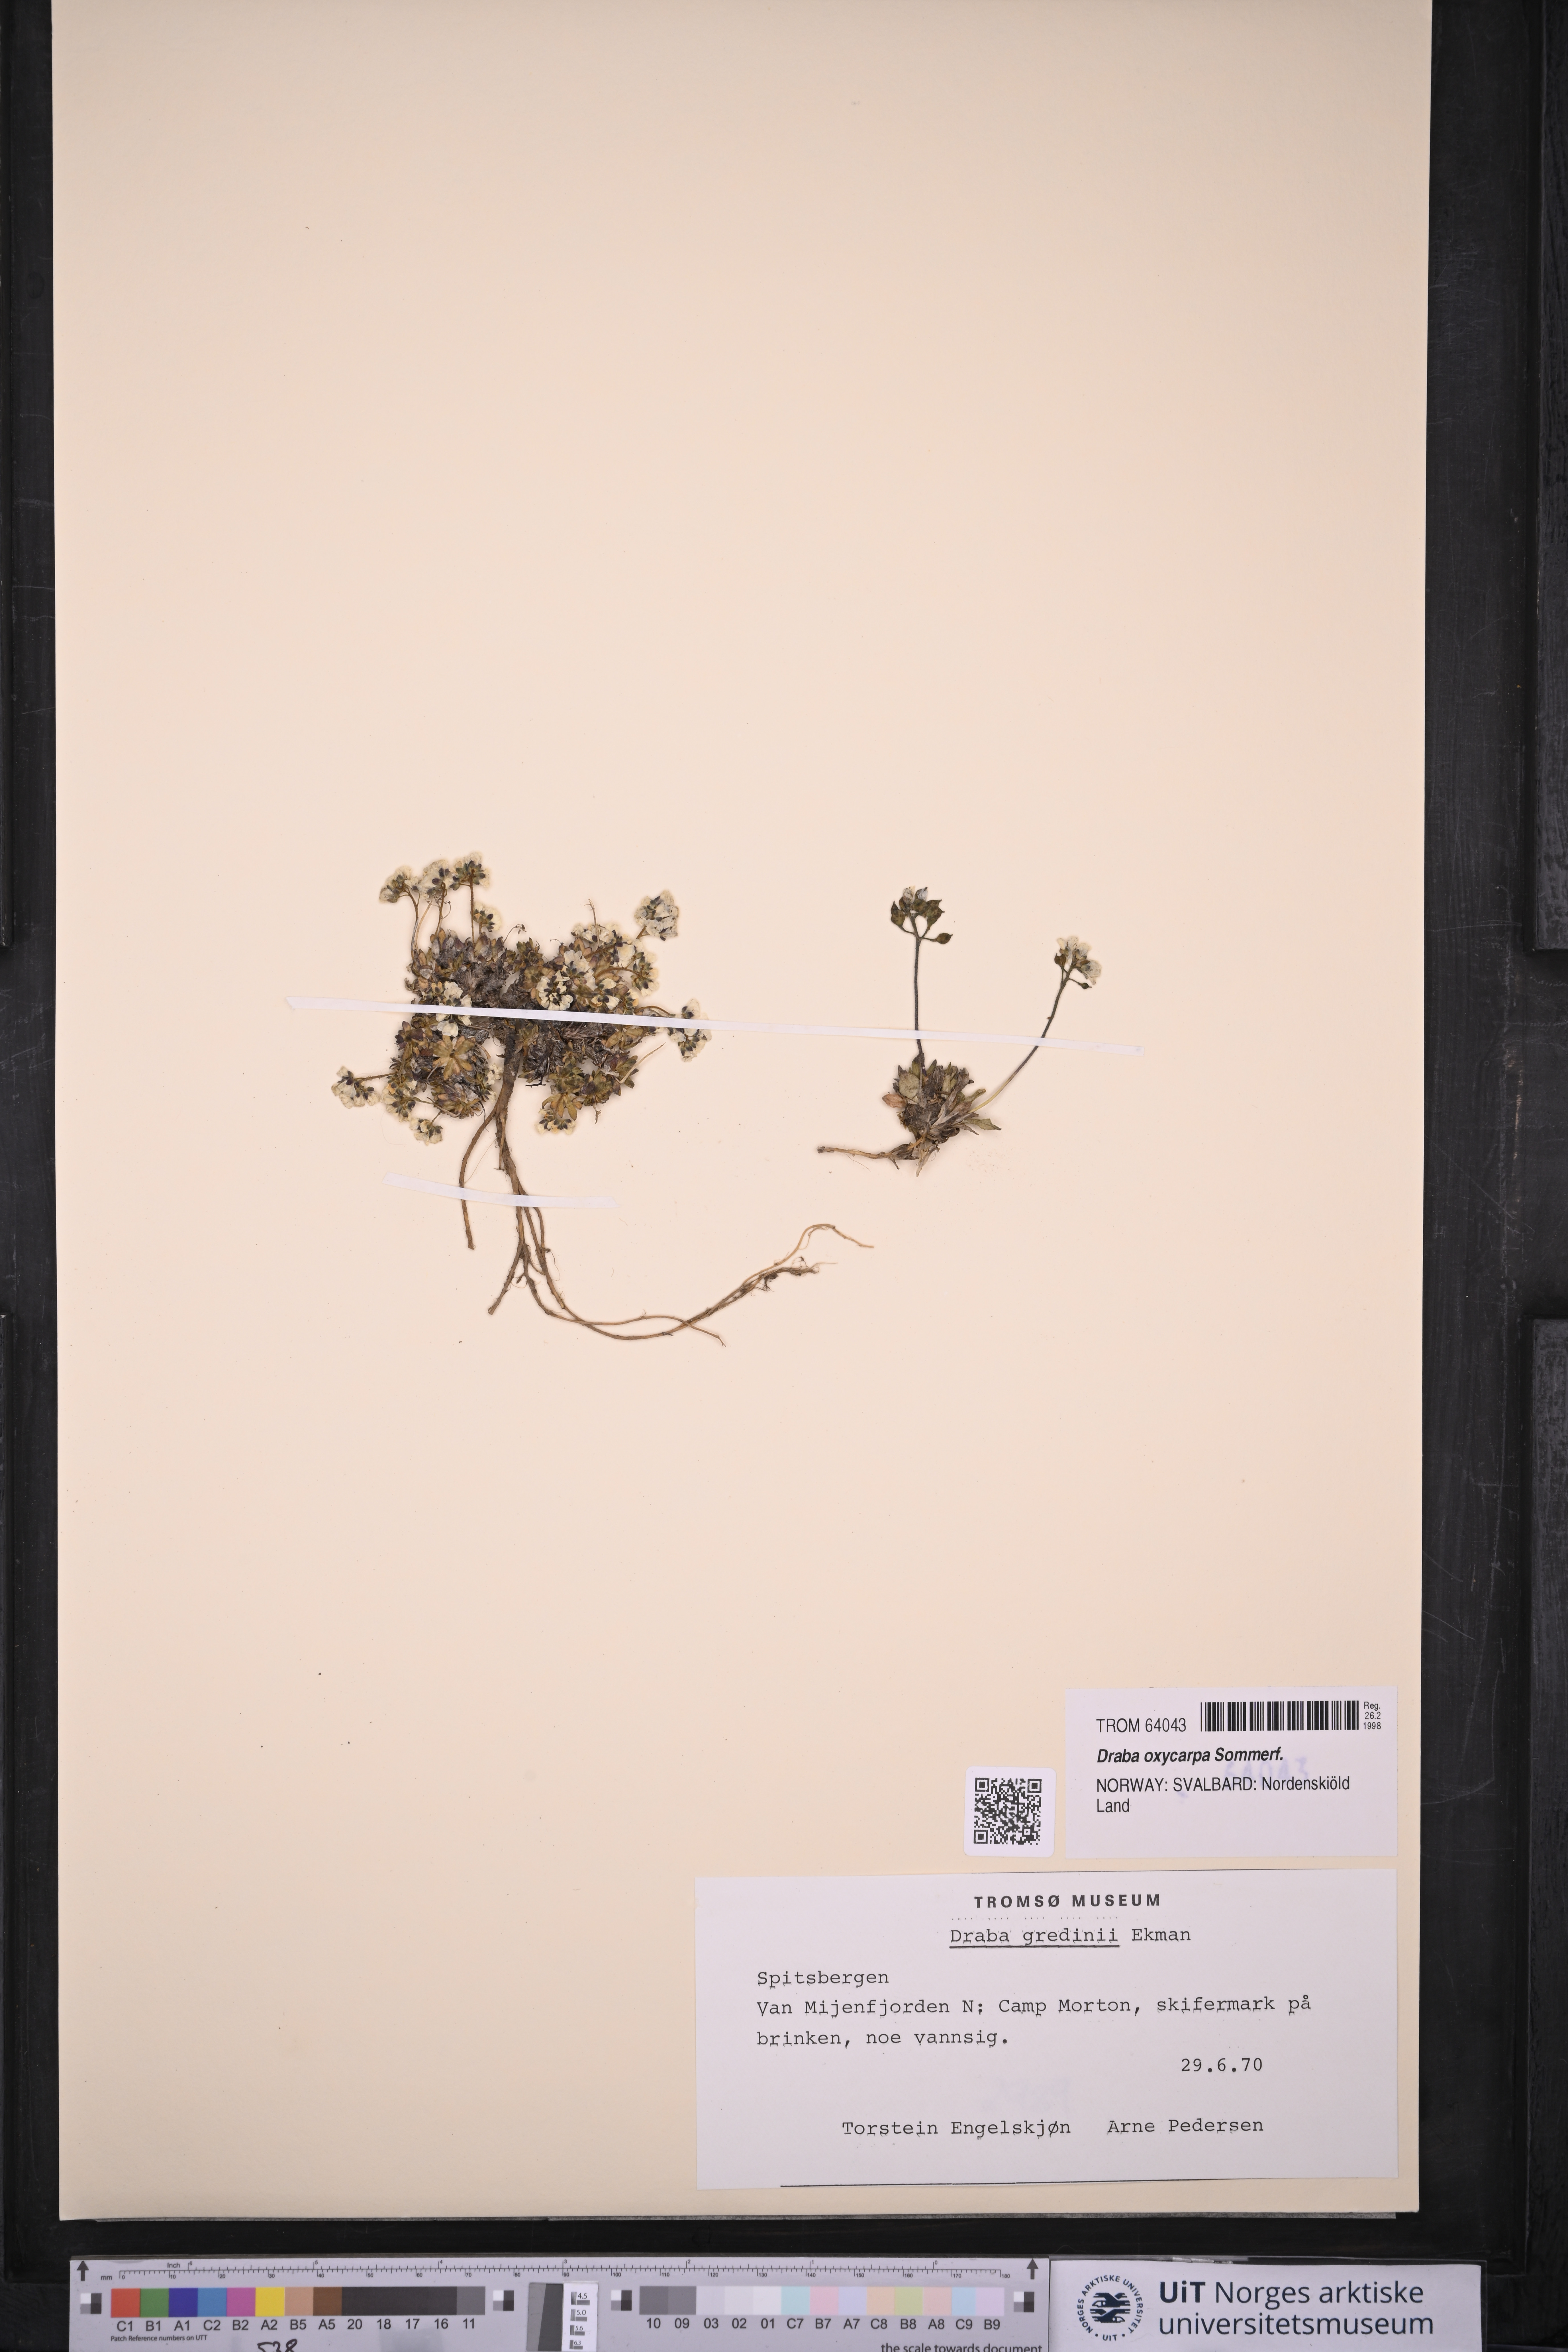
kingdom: Plantae
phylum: Tracheophyta
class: Magnoliopsida
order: Brassicales
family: Brassicaceae
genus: Draba
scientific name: Draba oxycarpa
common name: Sharp-fruited whitlow-grass
